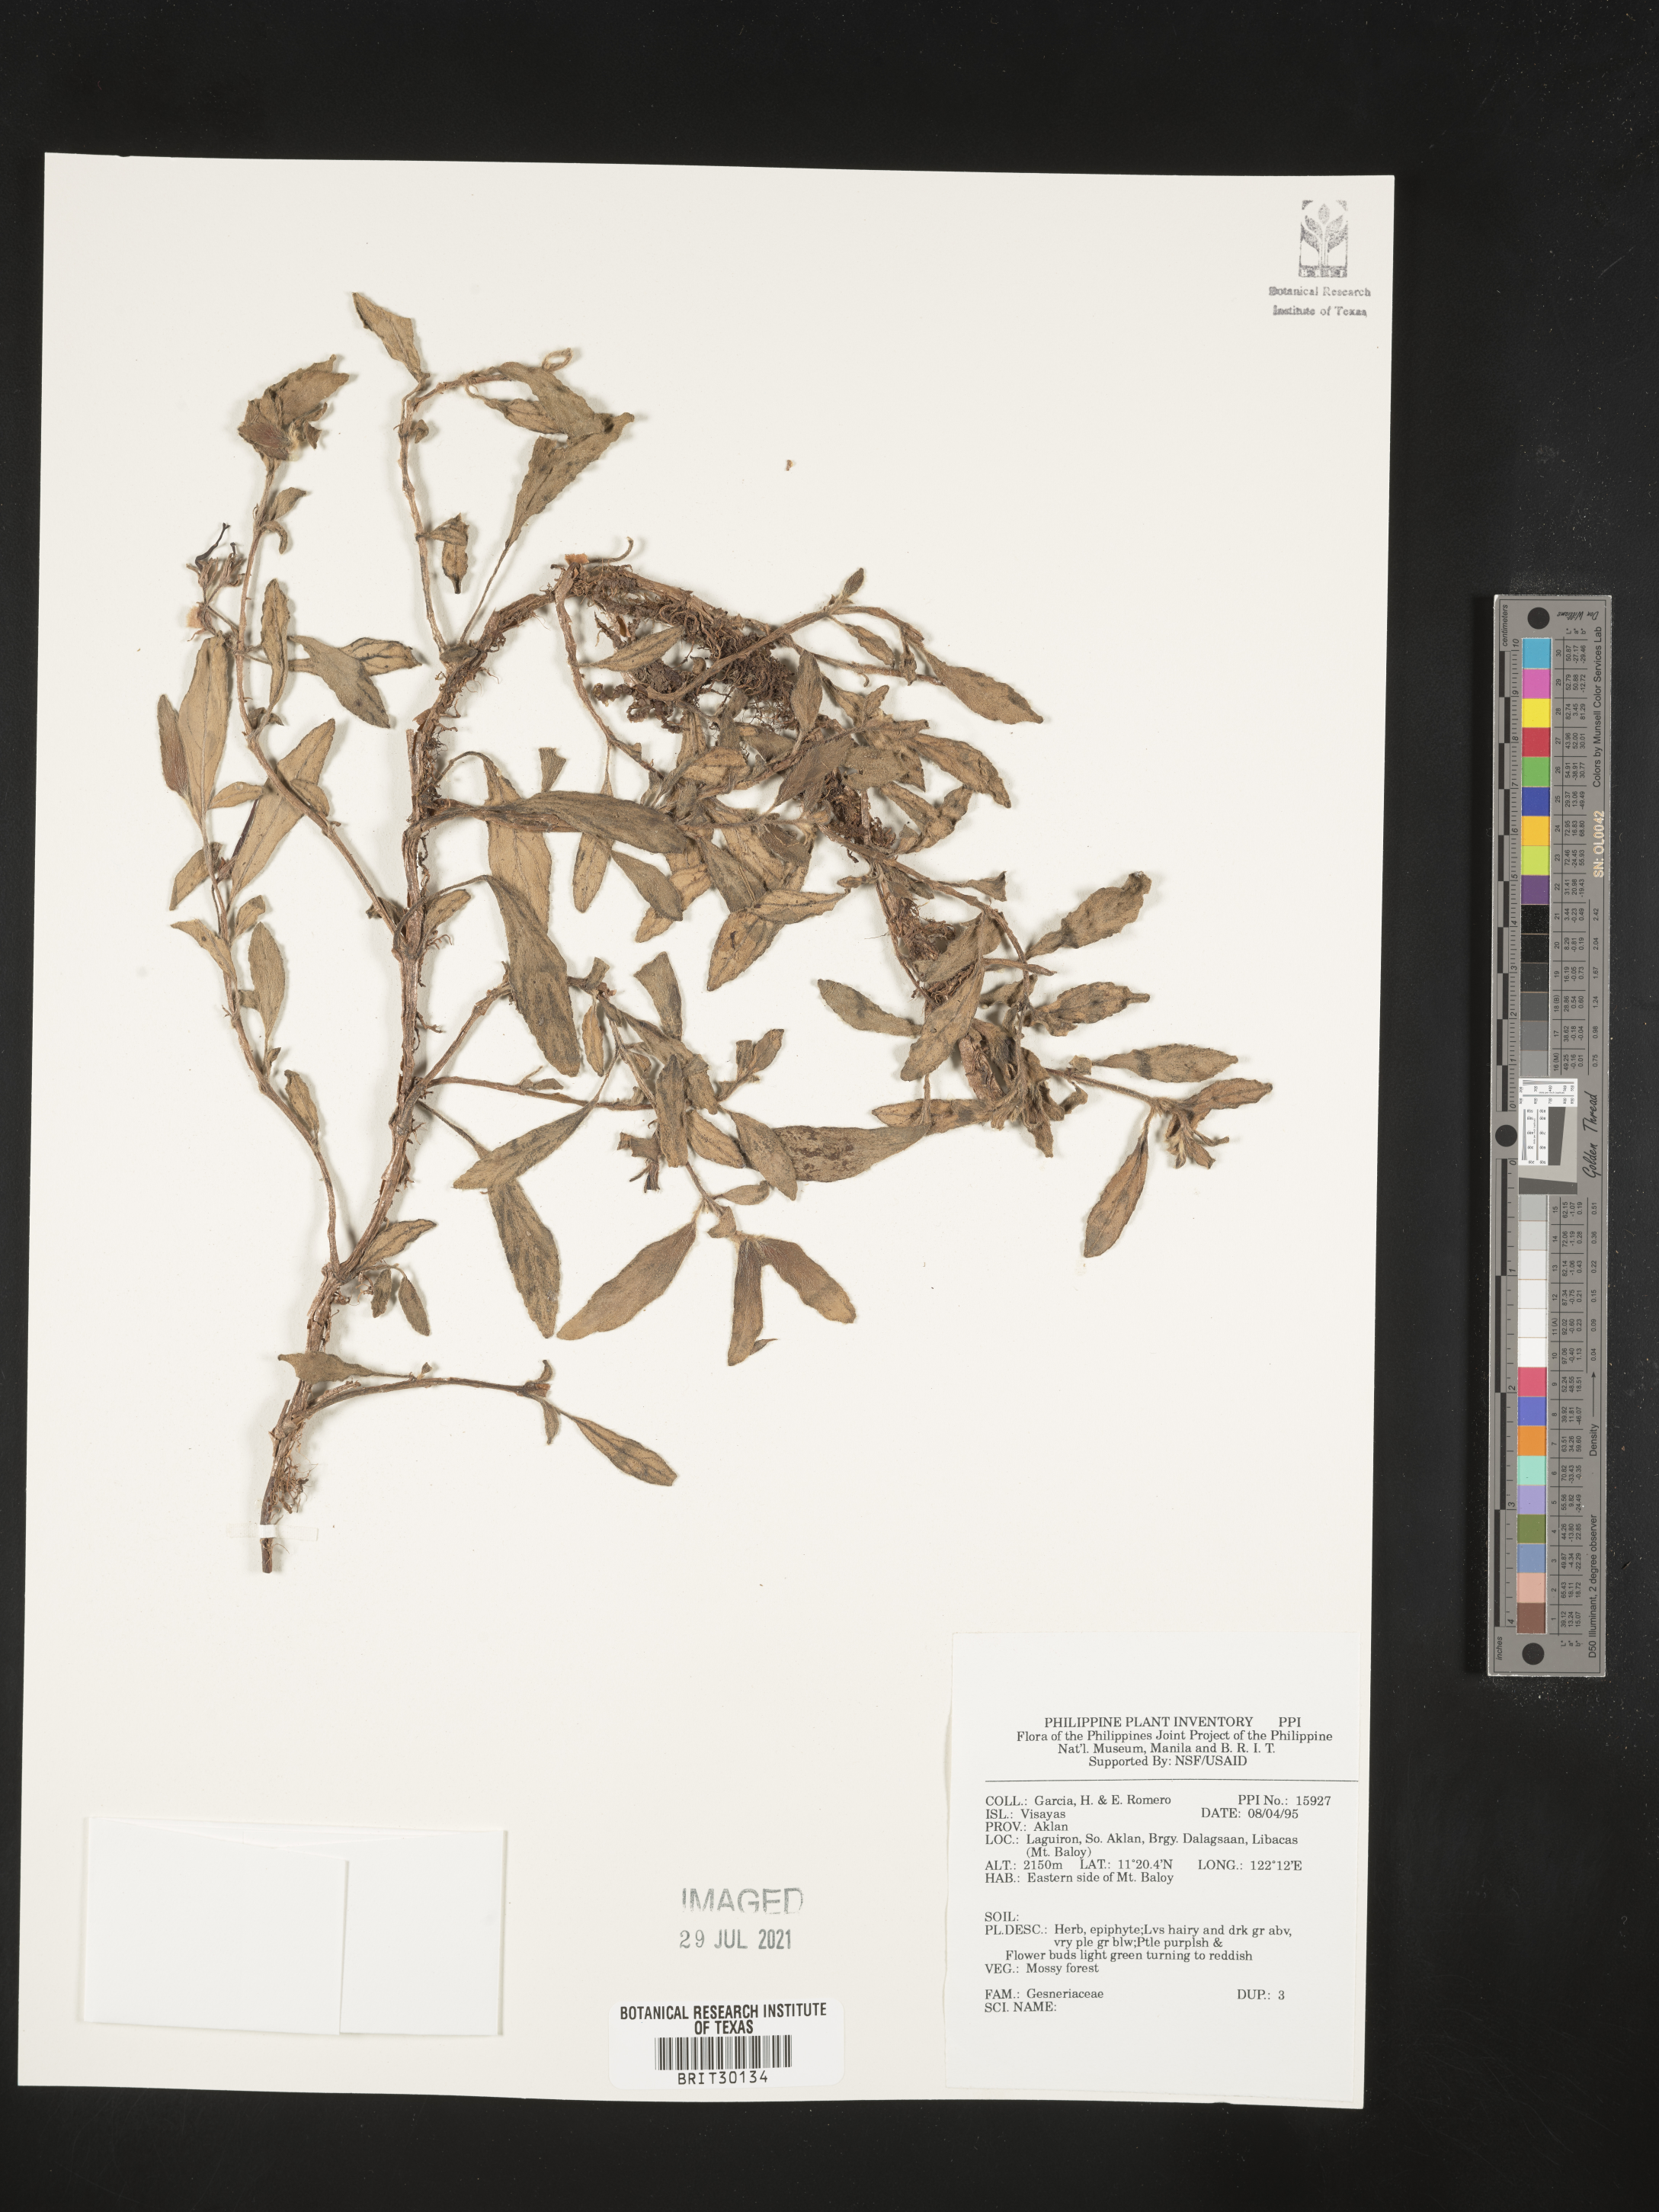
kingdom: Plantae
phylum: Tracheophyta
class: Magnoliopsida
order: Lamiales
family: Gesneriaceae
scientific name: Gesneriaceae
